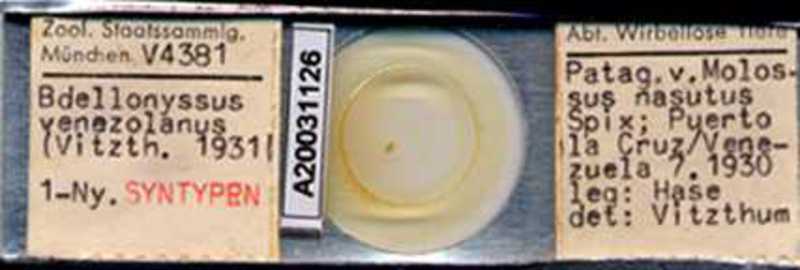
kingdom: Animalia
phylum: Arthropoda
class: Arachnida
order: Mesostigmata
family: Macronyssidae
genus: Chiroptonyssus
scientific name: Chiroptonyssus venezolanus
